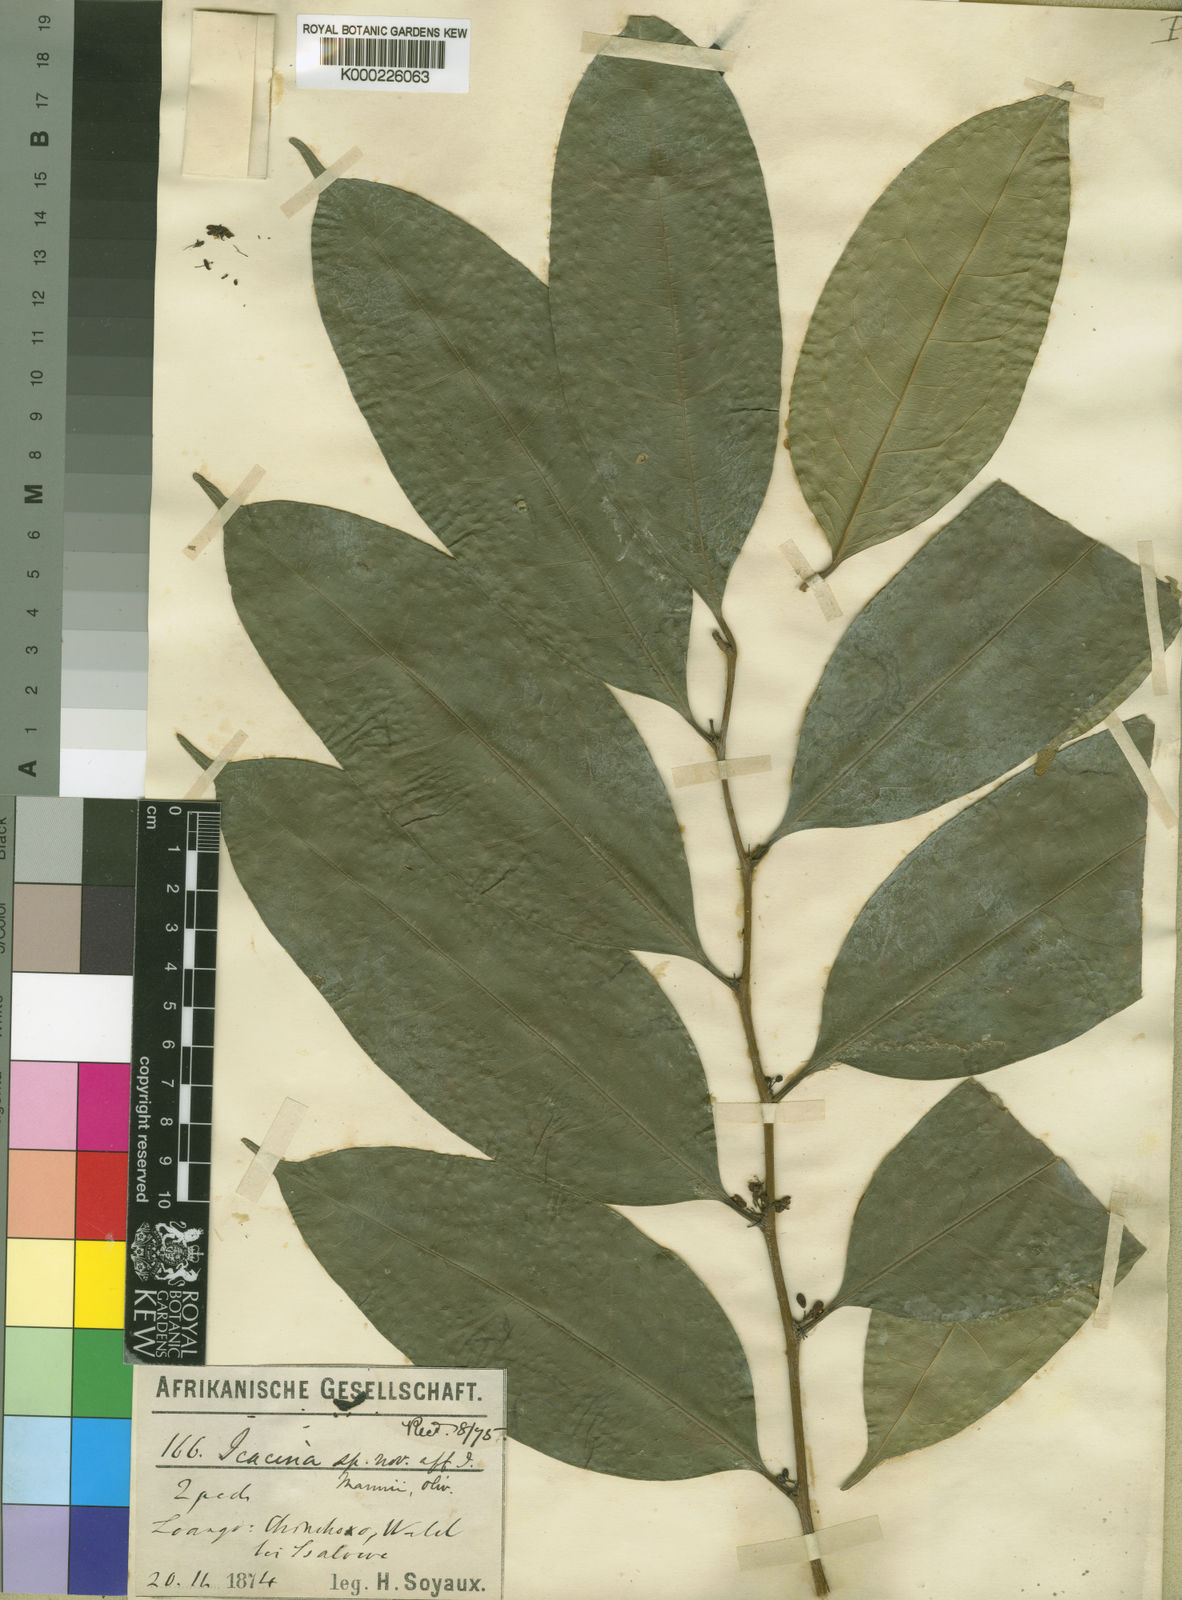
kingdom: Plantae
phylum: Tracheophyta
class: Magnoliopsida
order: Icacinales
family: Icacinaceae
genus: Icacina
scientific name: Icacina
